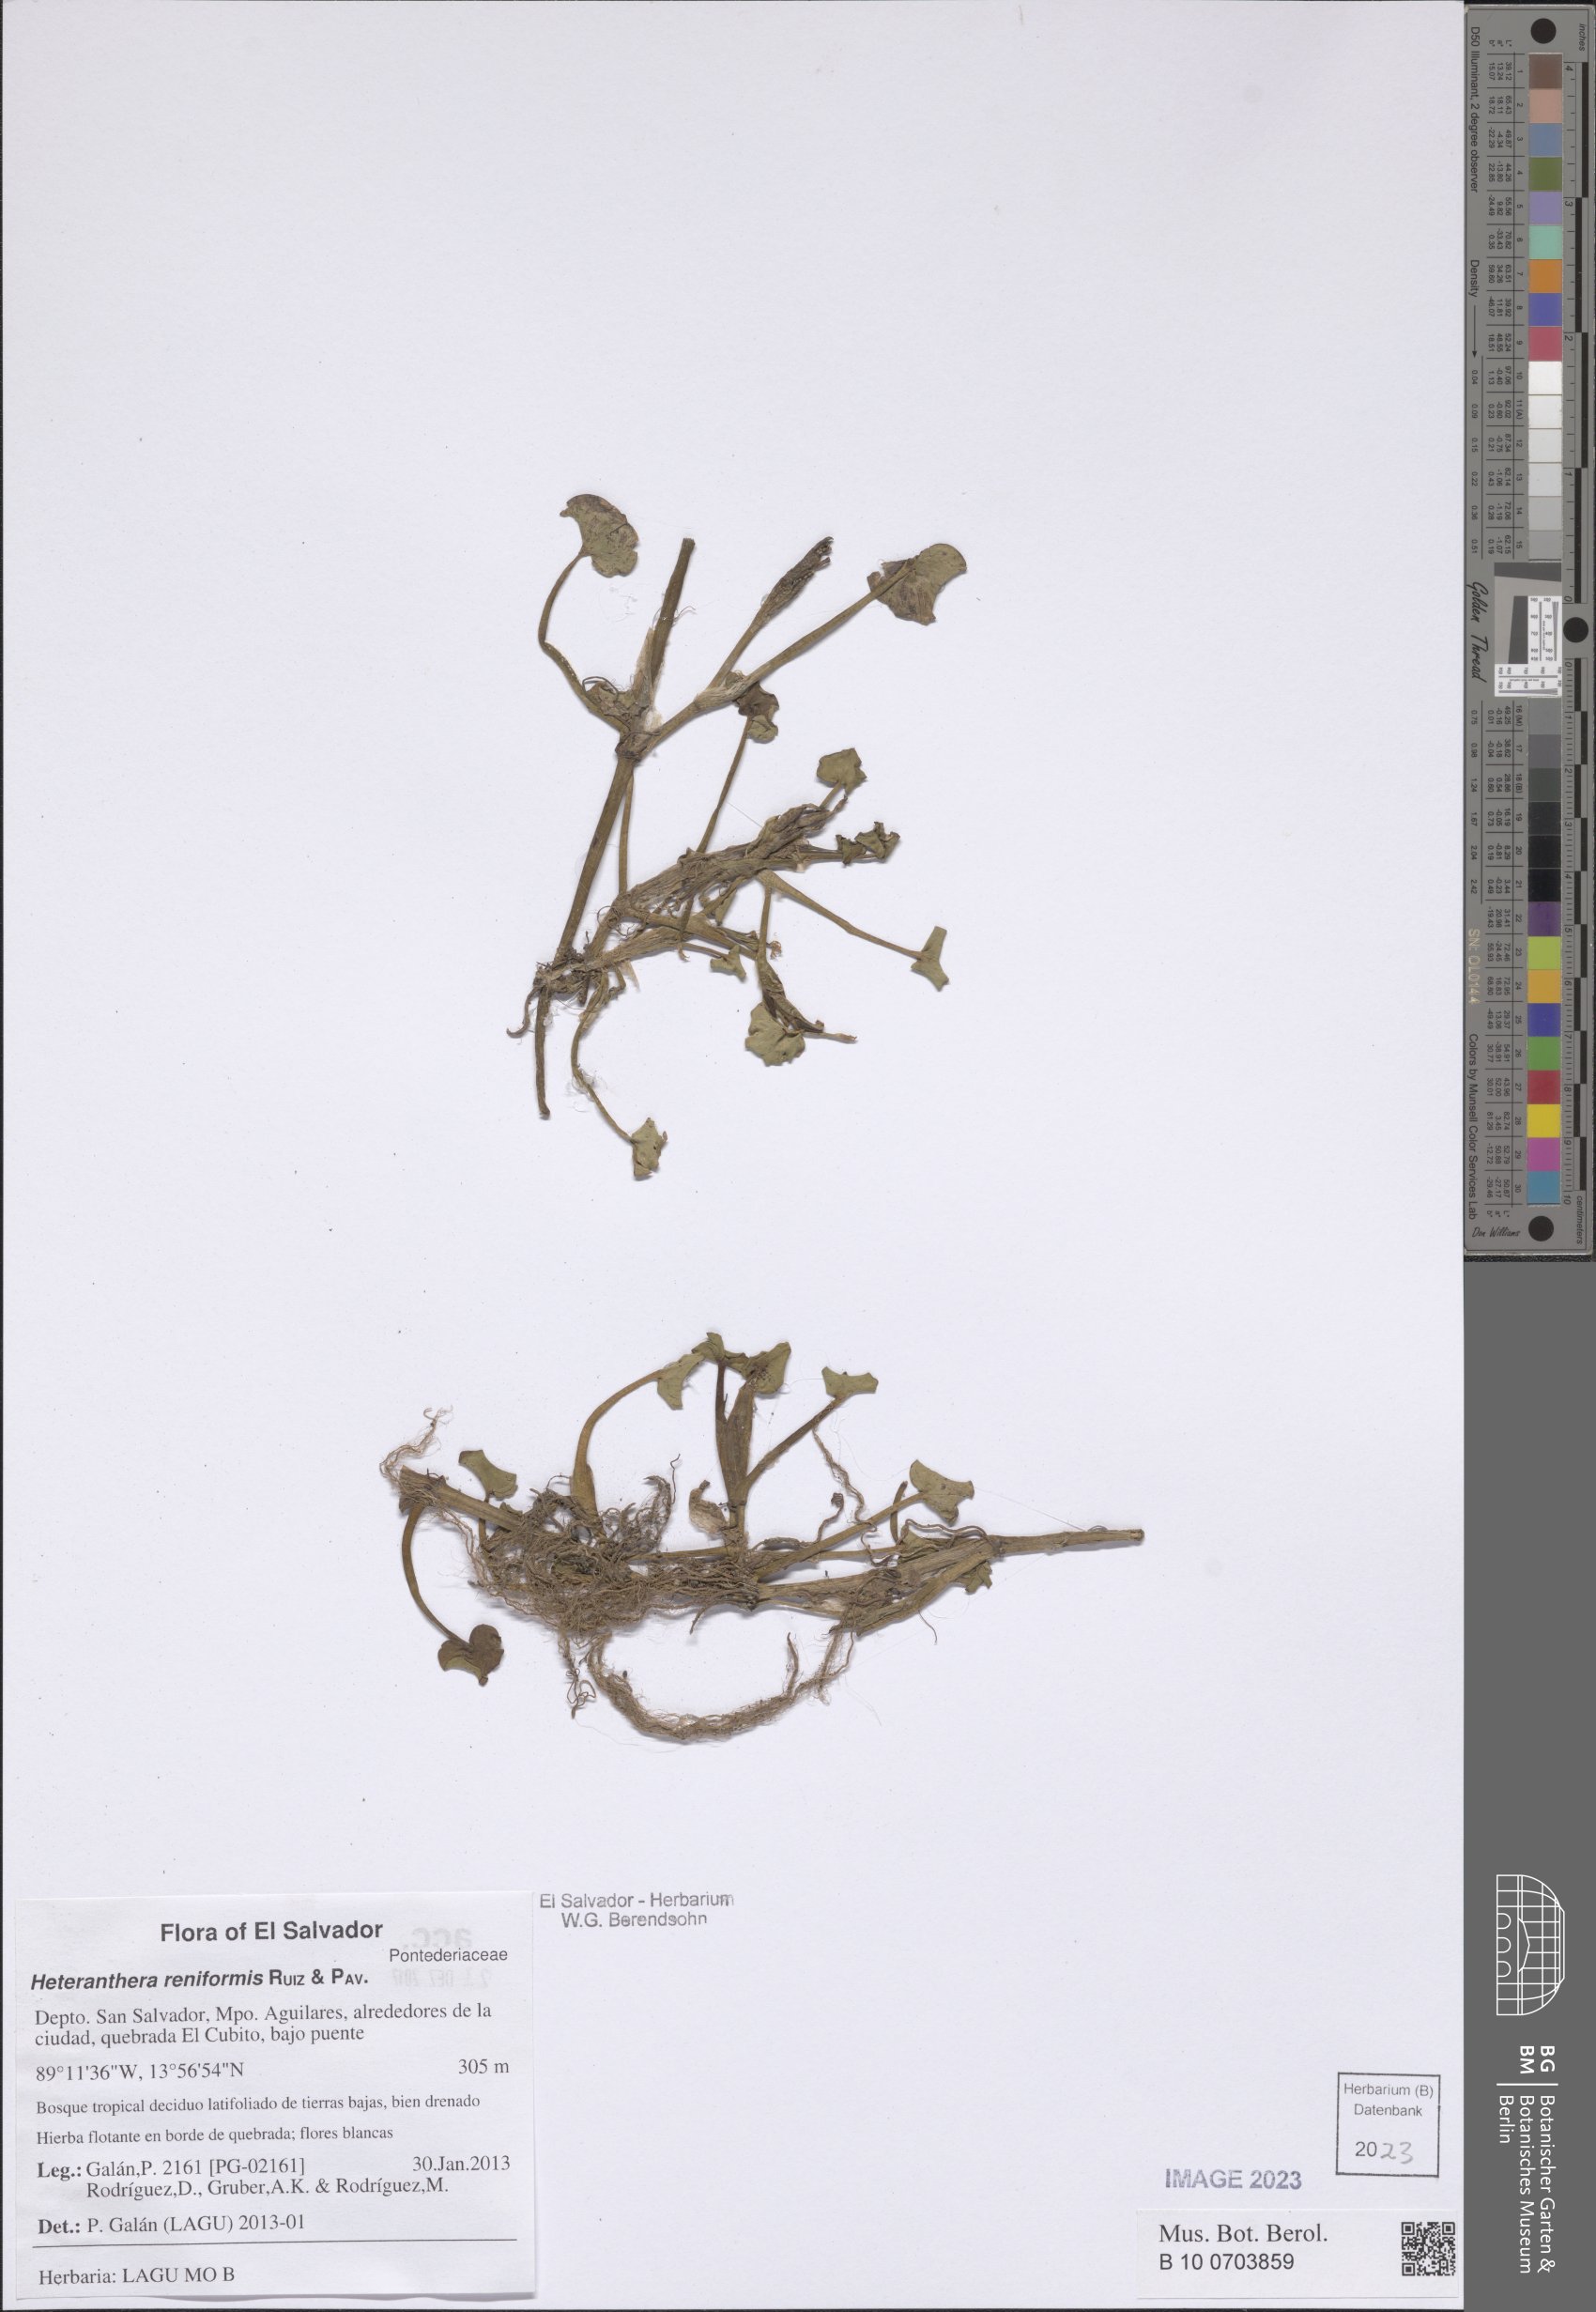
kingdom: Plantae
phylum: Tracheophyta
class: Liliopsida
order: Commelinales
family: Pontederiaceae
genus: Heteranthera
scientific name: Heteranthera reniformis
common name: Kidneyleaf mudplantain
